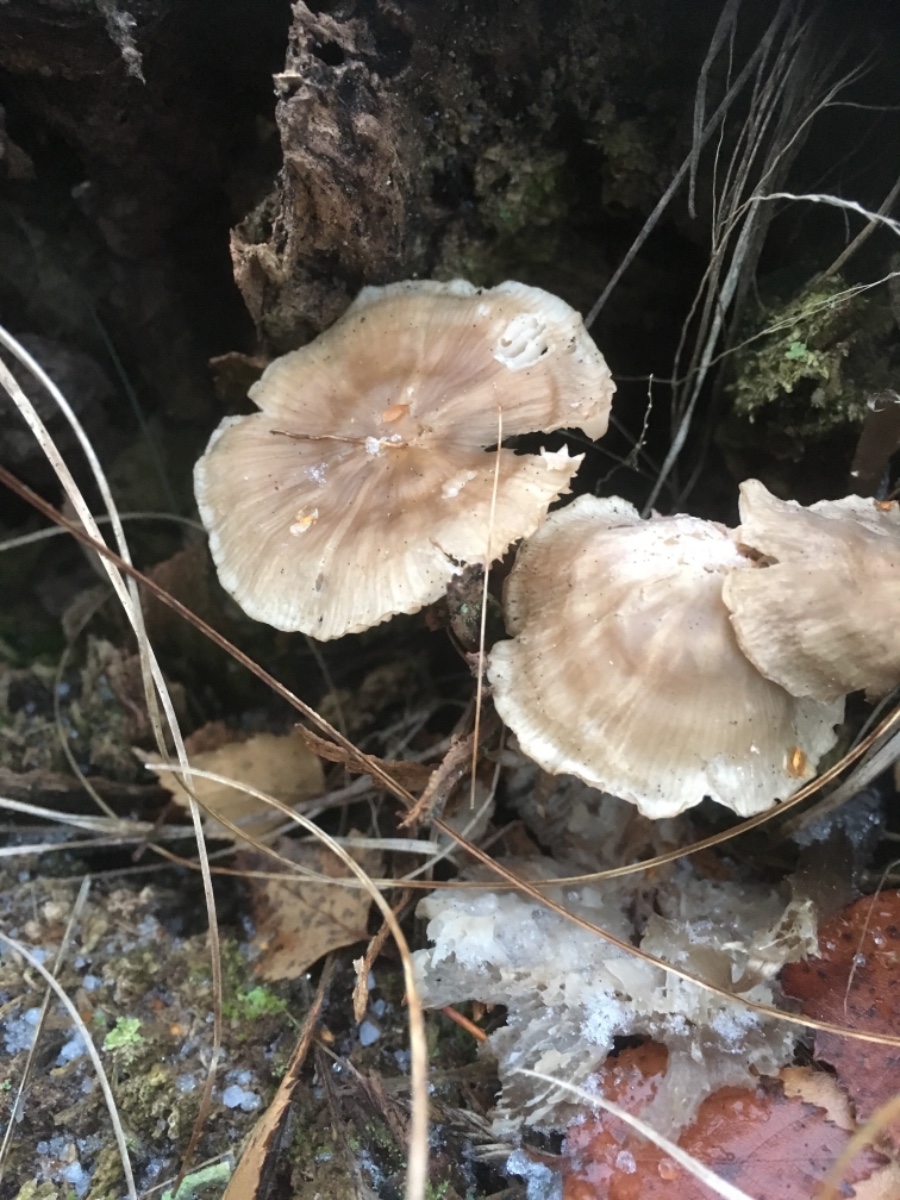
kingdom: Fungi
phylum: Basidiomycota
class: Agaricomycetes
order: Agaricales
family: Mycenaceae
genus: Mycena
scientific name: Mycena
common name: huesvamp
